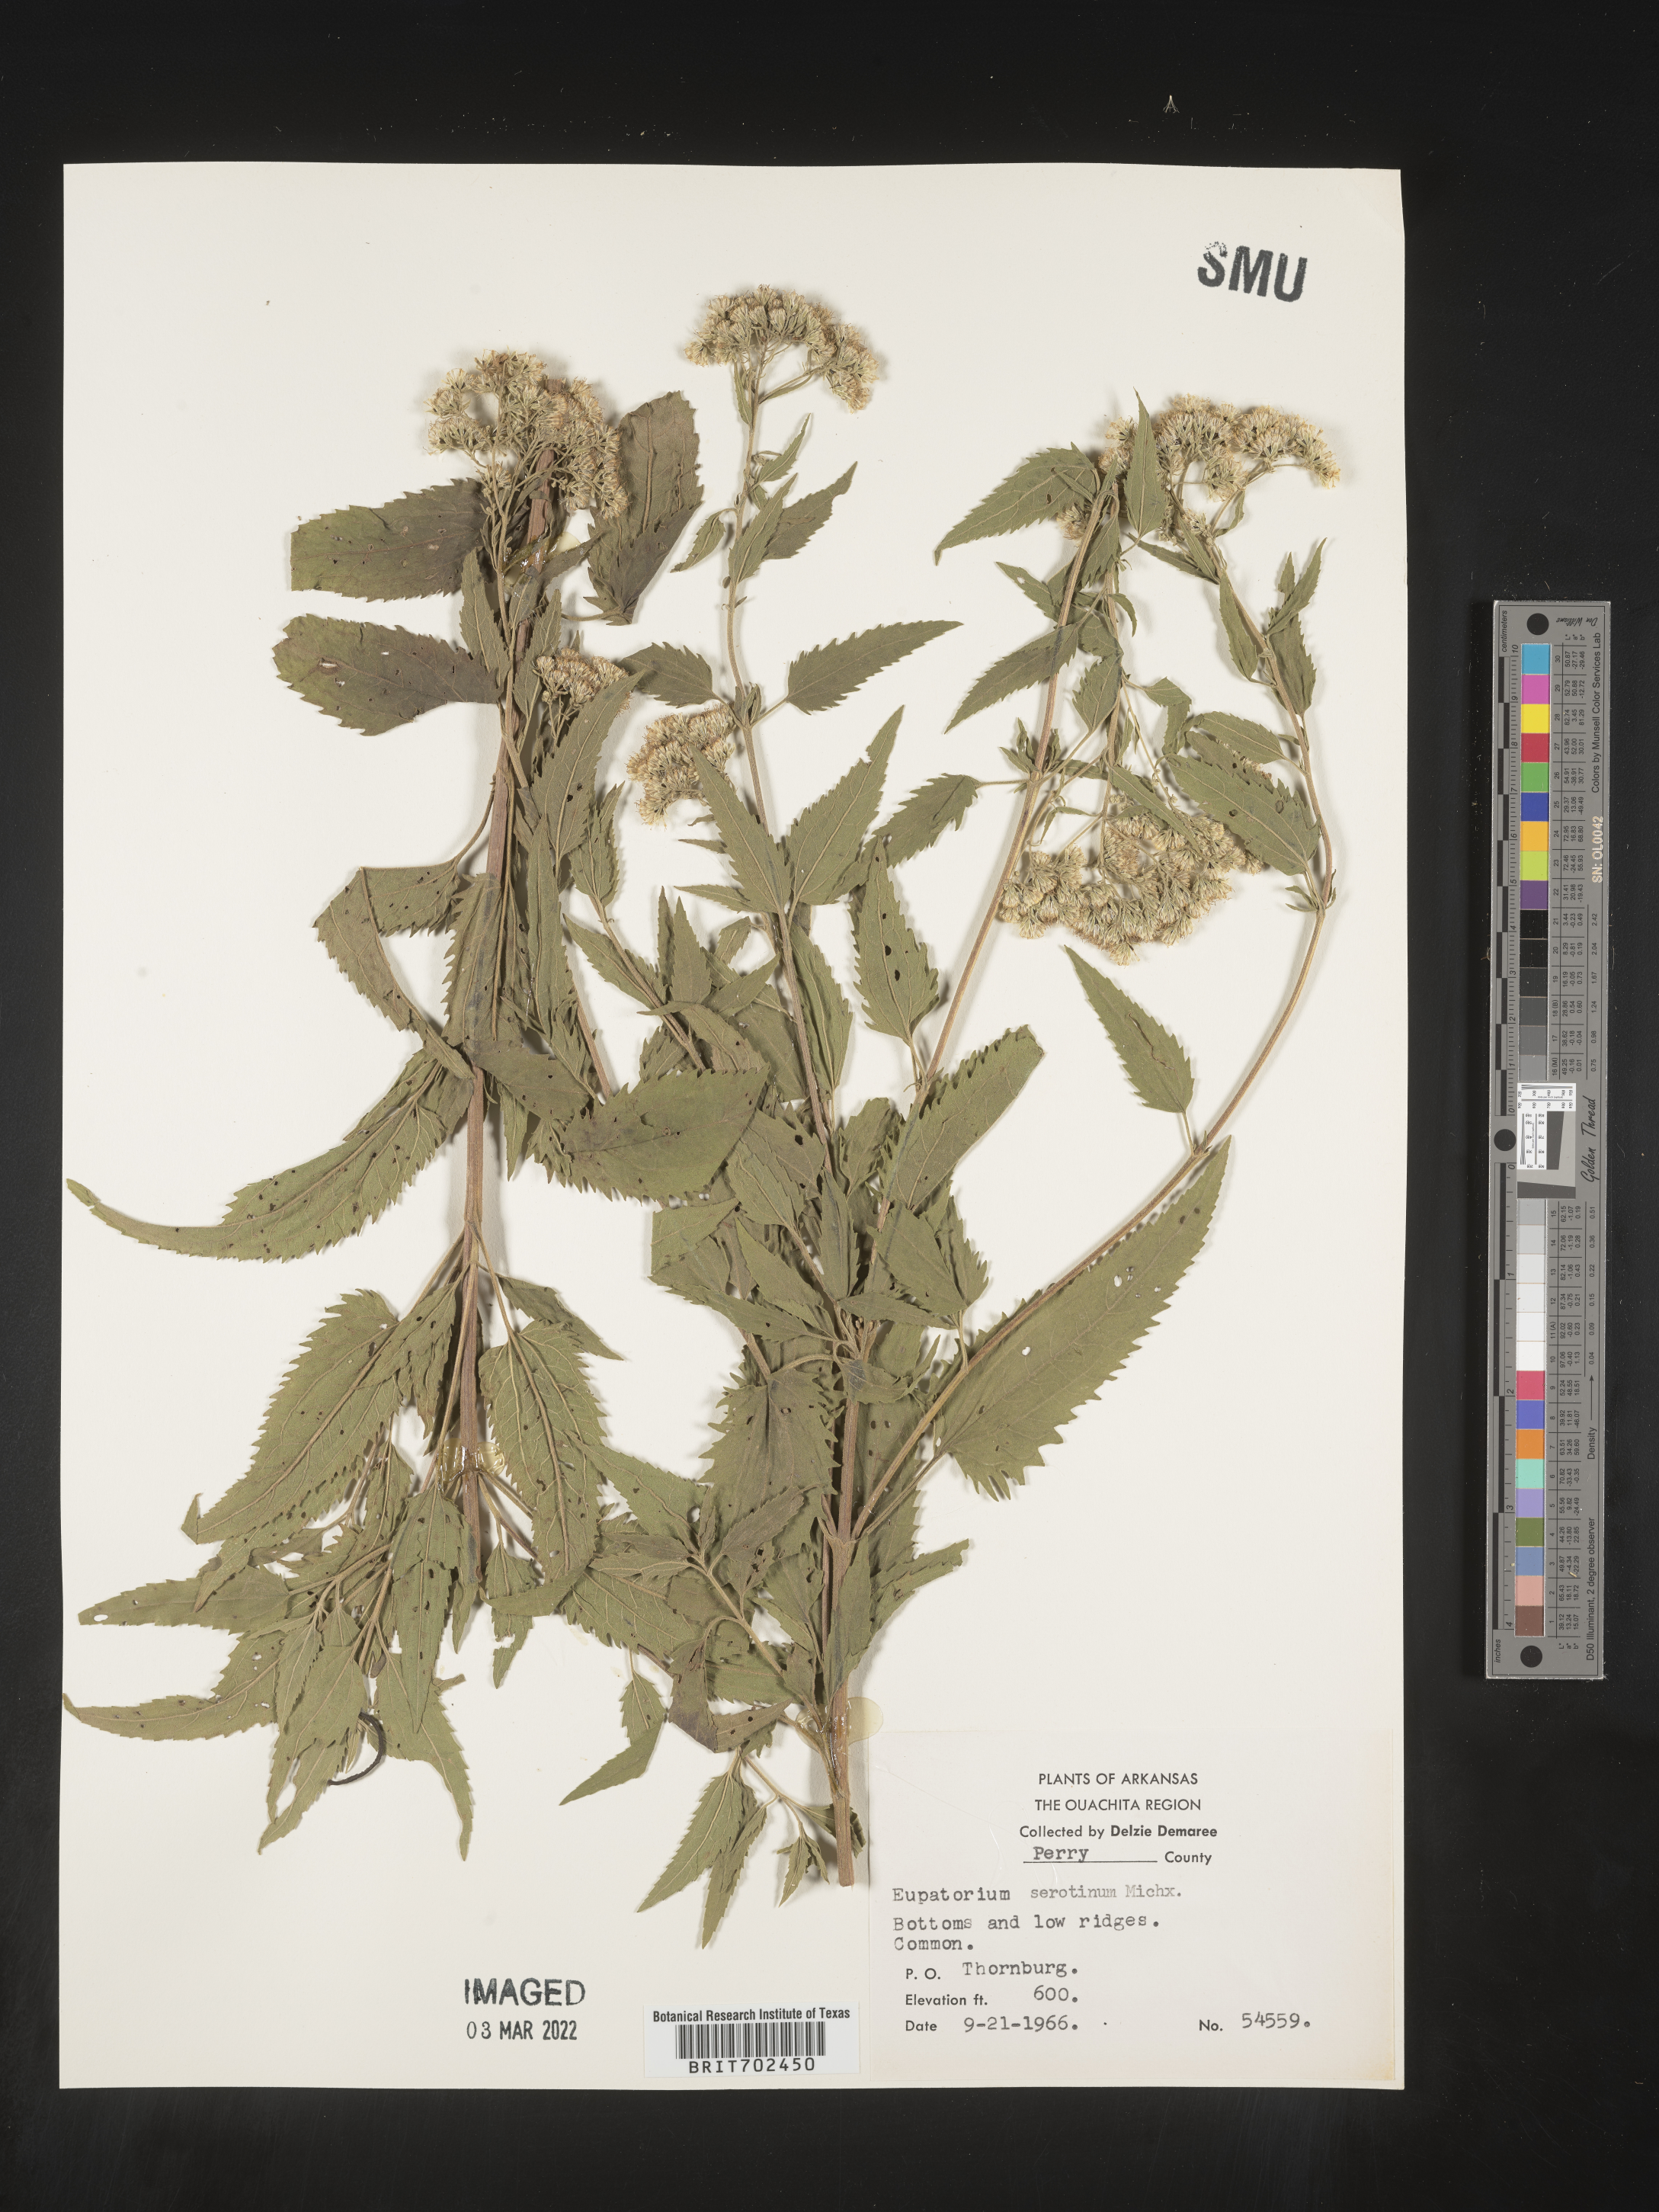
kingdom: Plantae
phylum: Tracheophyta
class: Magnoliopsida
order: Asterales
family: Asteraceae
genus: Eupatorium
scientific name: Eupatorium serotinum
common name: Late boneset
